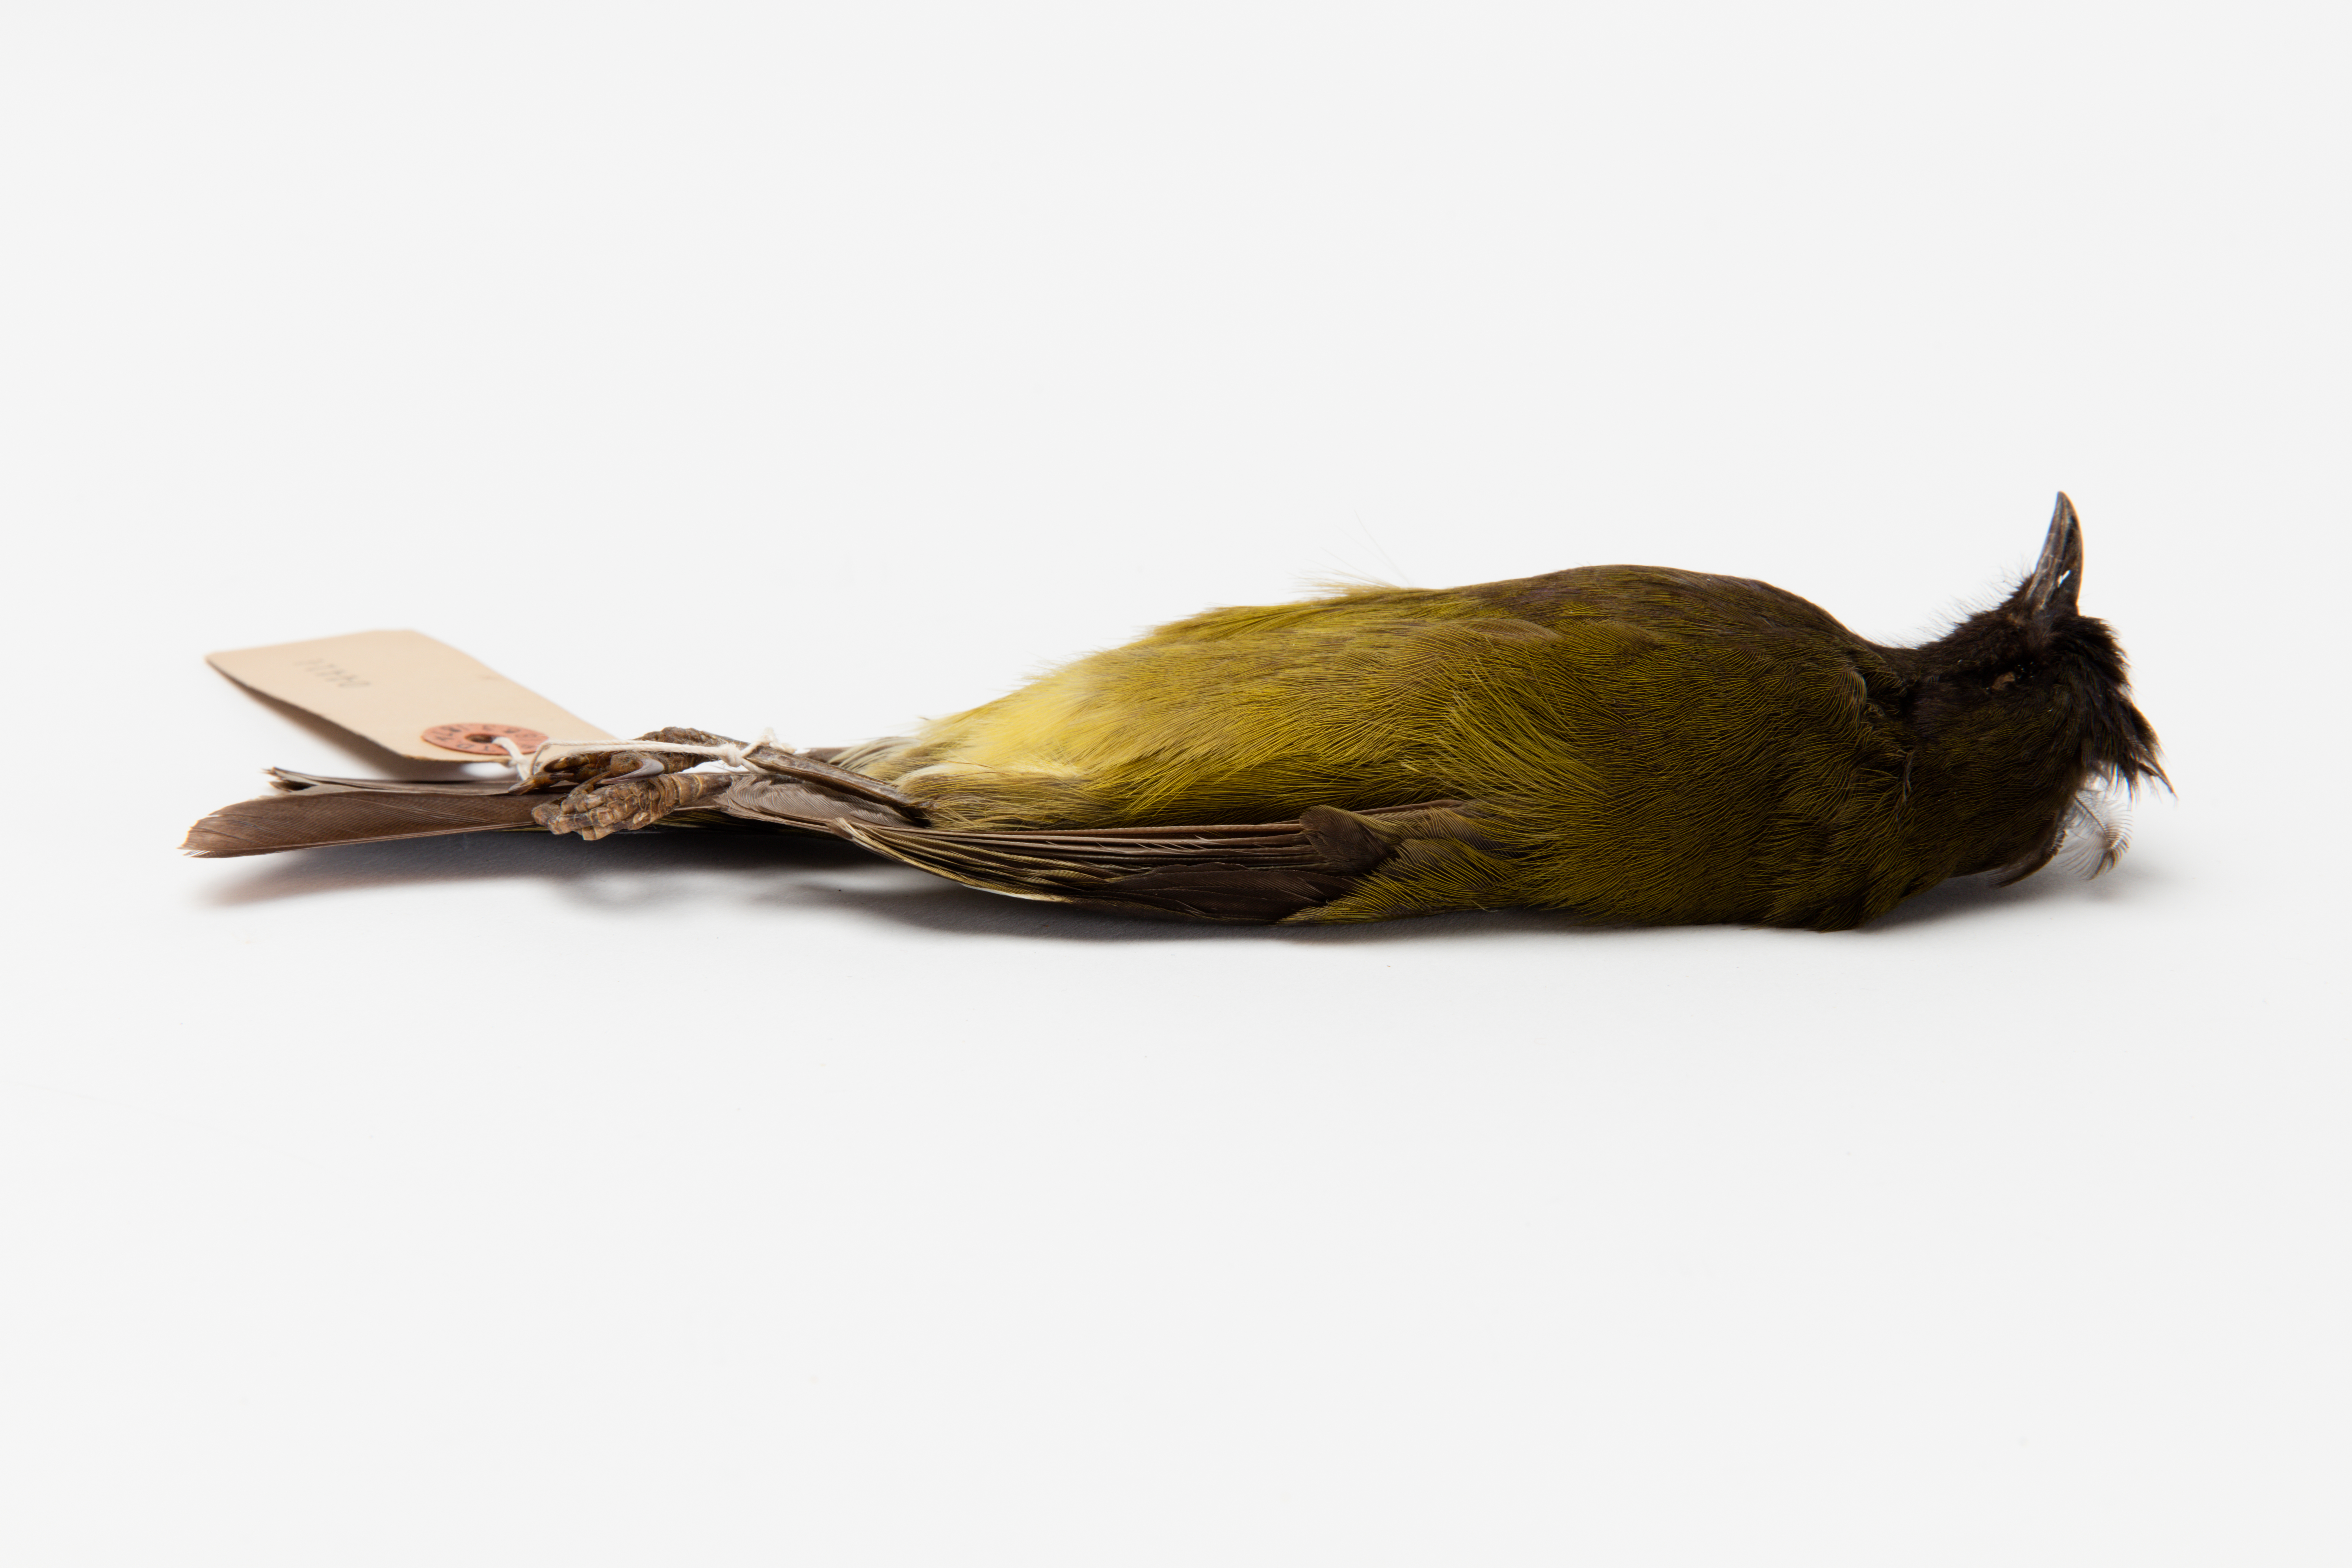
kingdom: Animalia
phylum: Chordata
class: Aves
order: Passeriformes
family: Meliphagidae
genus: Anthornis
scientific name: Anthornis melanocephala
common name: Chatham bellbird
